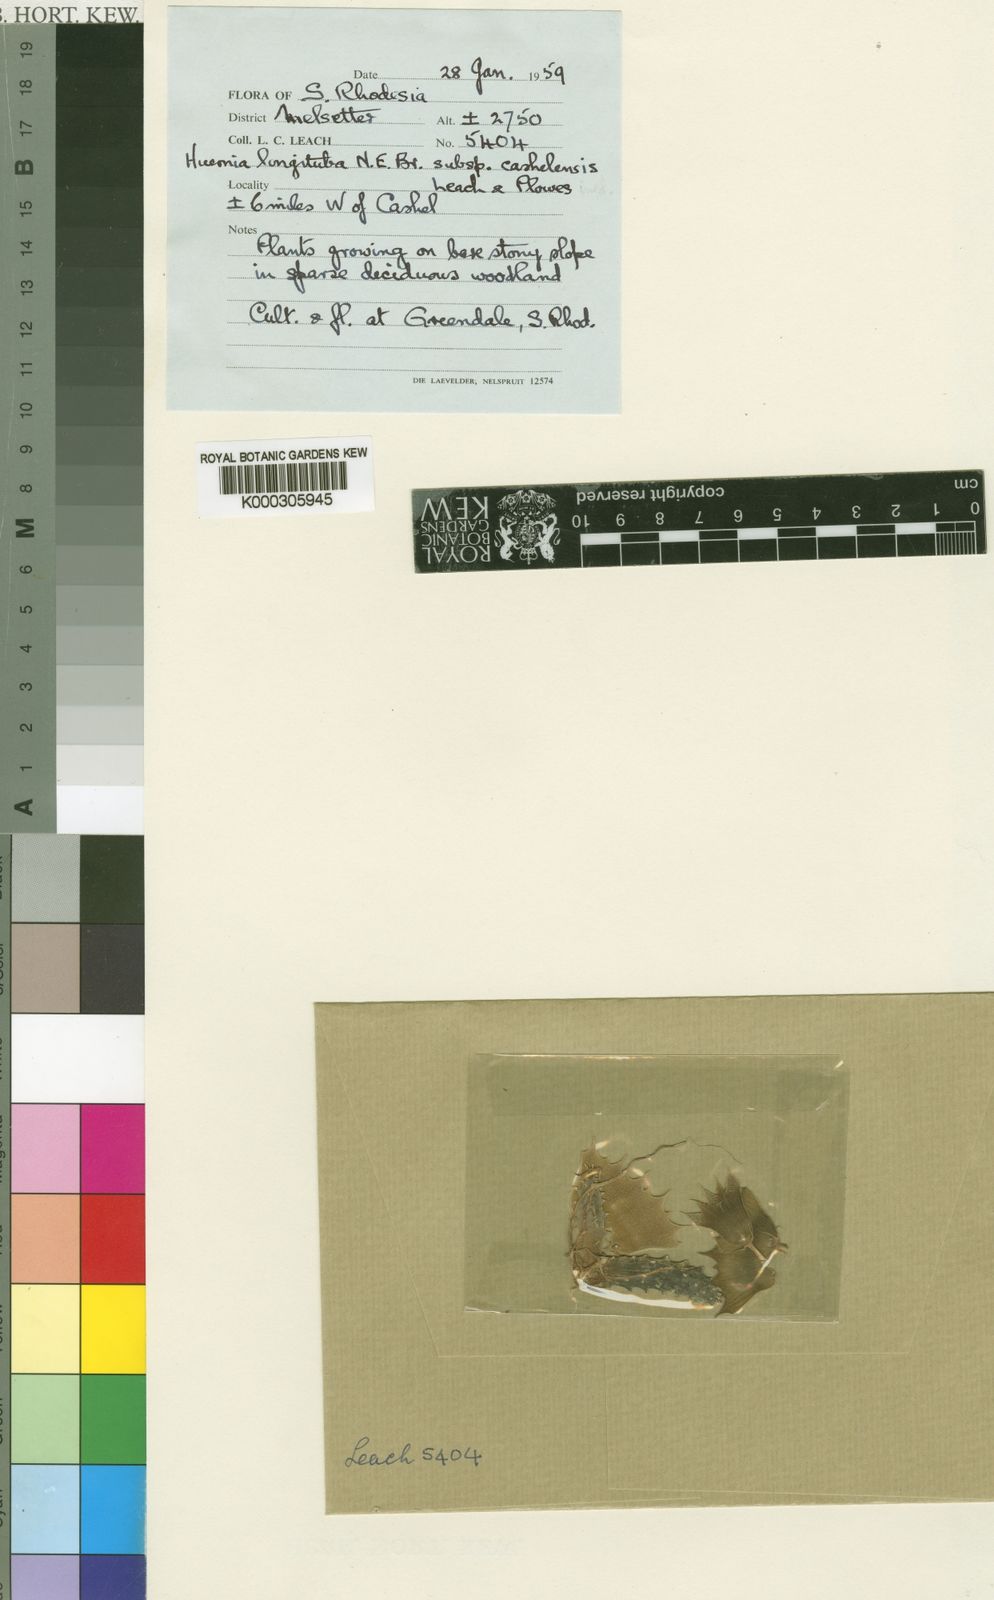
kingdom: Plantae
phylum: Tracheophyta
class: Magnoliopsida
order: Gentianales
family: Apocynaceae
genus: Ceropegia
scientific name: Ceropegia longituba
